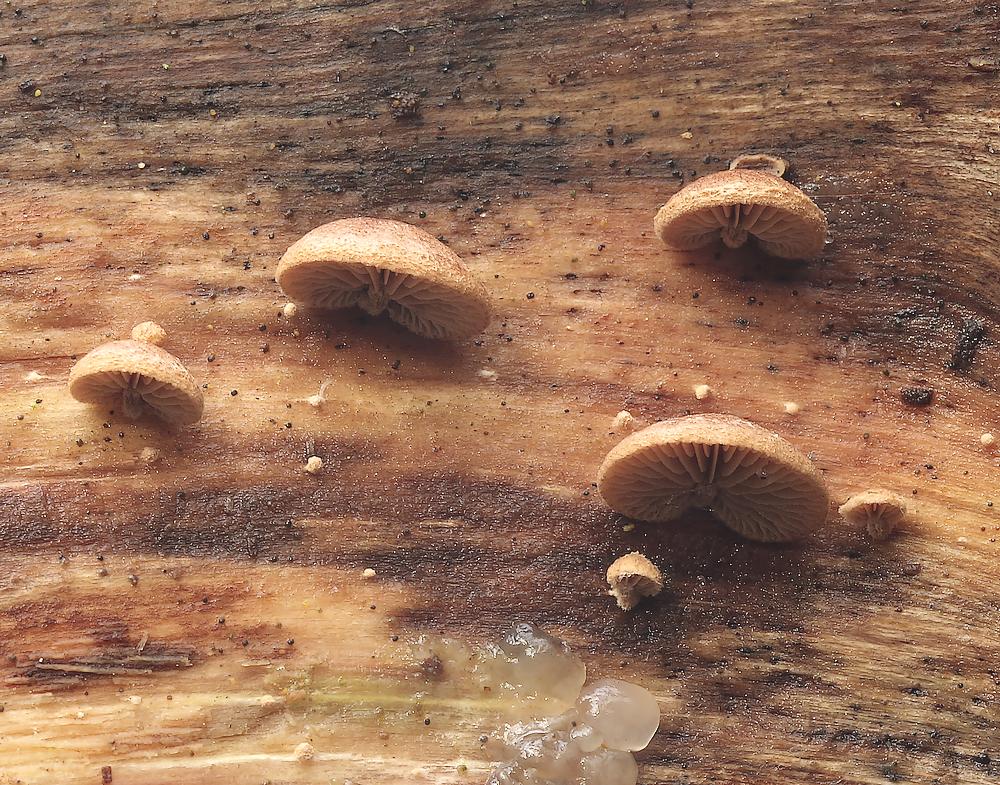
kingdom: Fungi
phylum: Basidiomycota
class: Agaricomycetes
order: Agaricales
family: Strophariaceae
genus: Deconica
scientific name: Deconica horizontalis
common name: ved-stråhat
